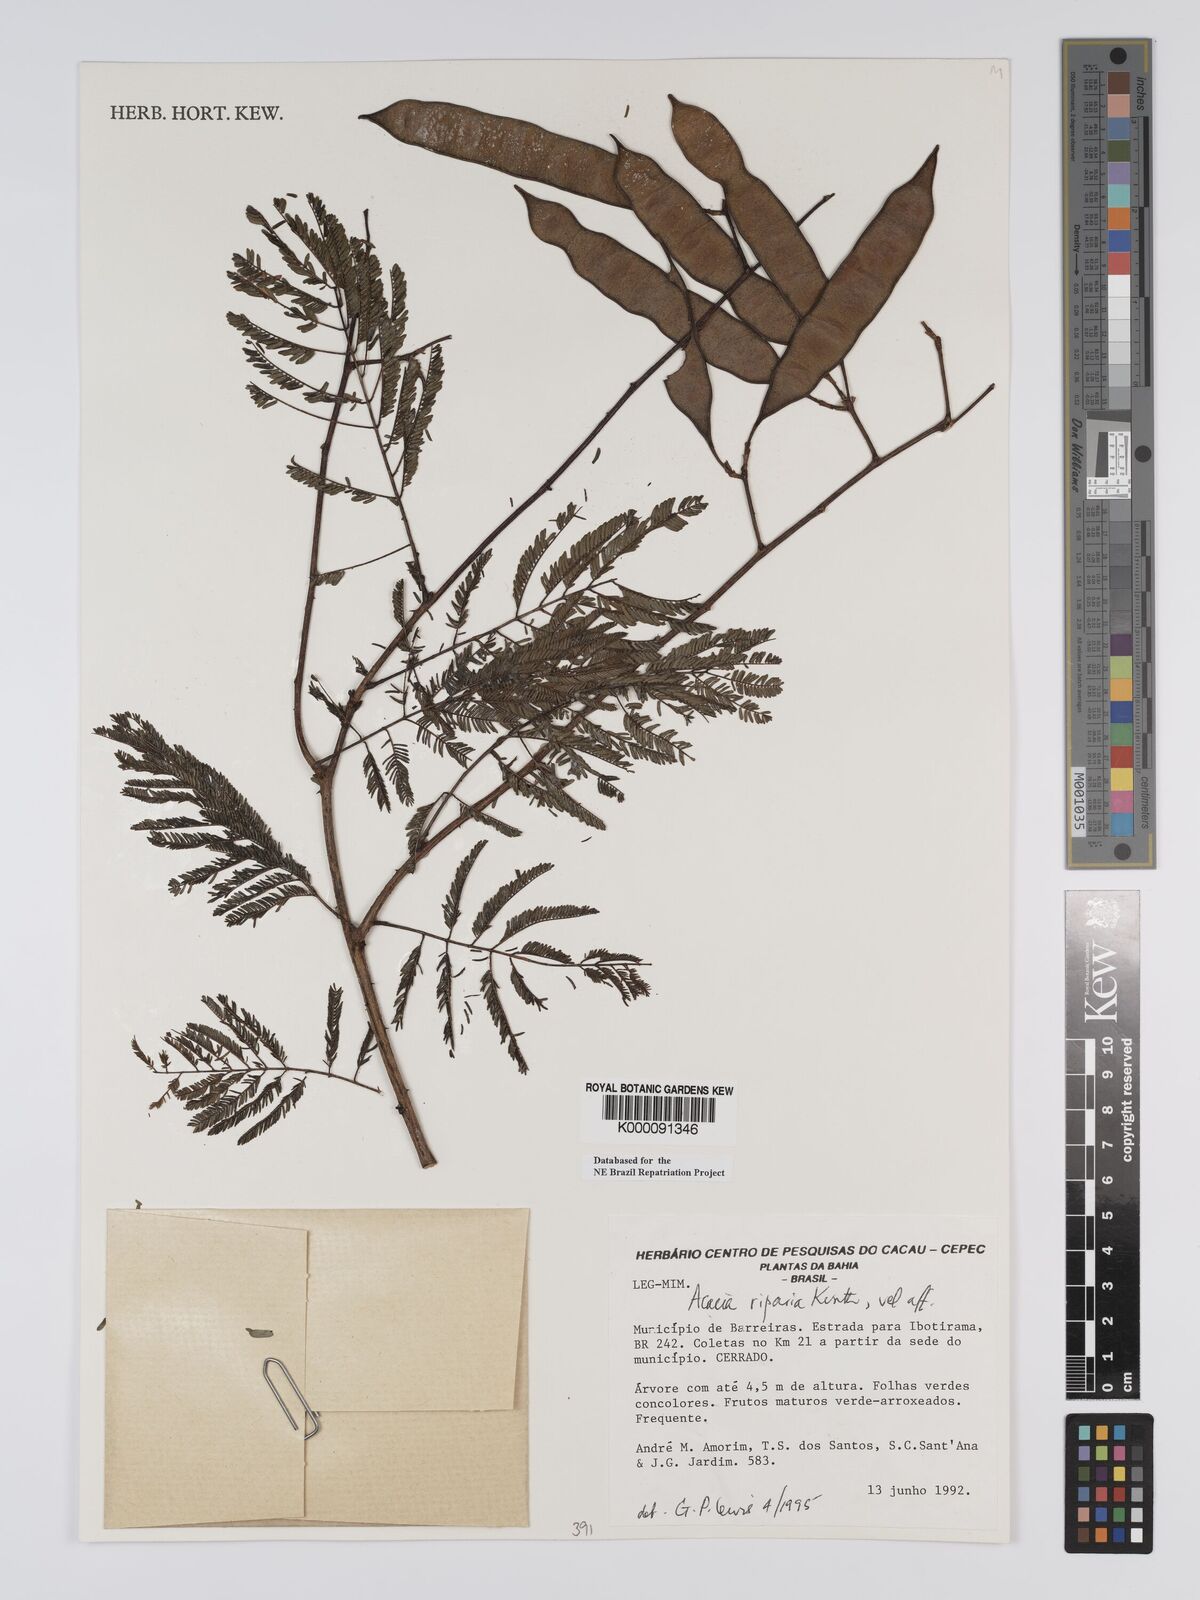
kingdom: Plantae
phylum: Tracheophyta
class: Magnoliopsida
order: Fabales
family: Fabaceae
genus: Senegalia
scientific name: Senegalia riparia
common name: Catch-and-keep
